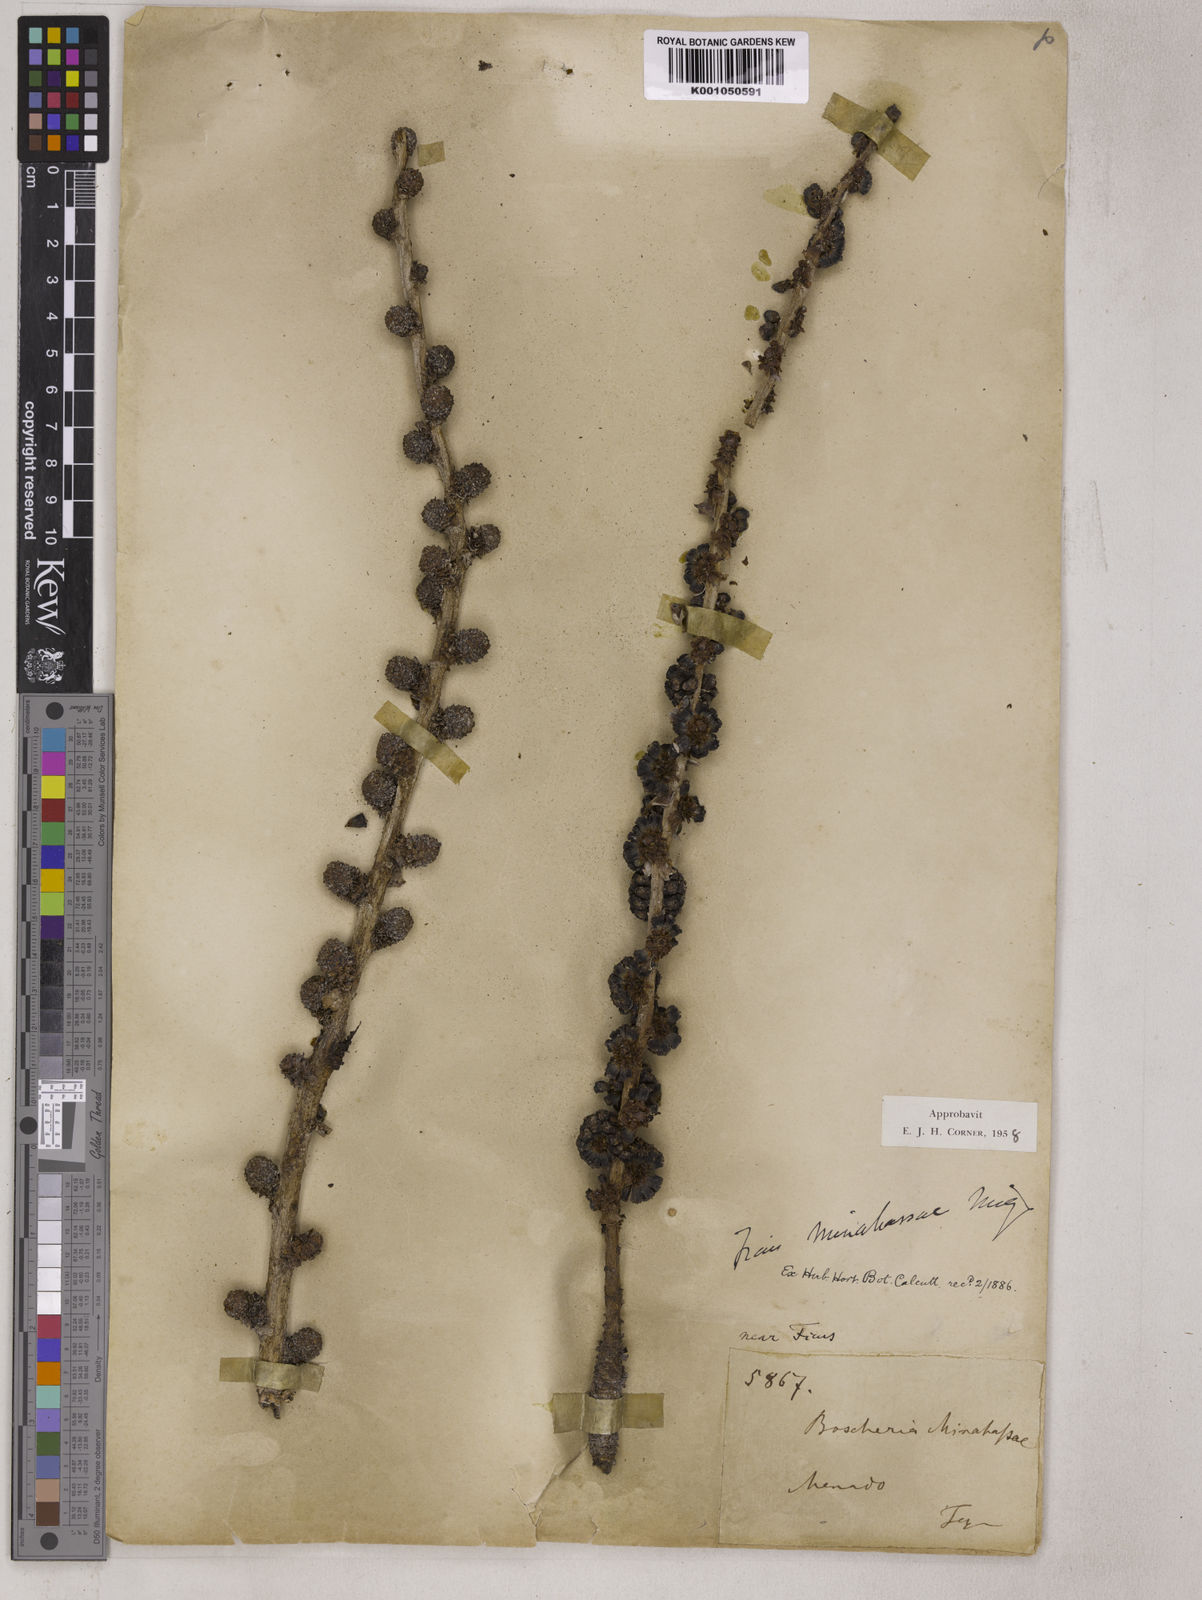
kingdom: Plantae
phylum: Tracheophyta
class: Magnoliopsida
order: Rosales
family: Moraceae
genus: Ficus
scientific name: Ficus minahassae
